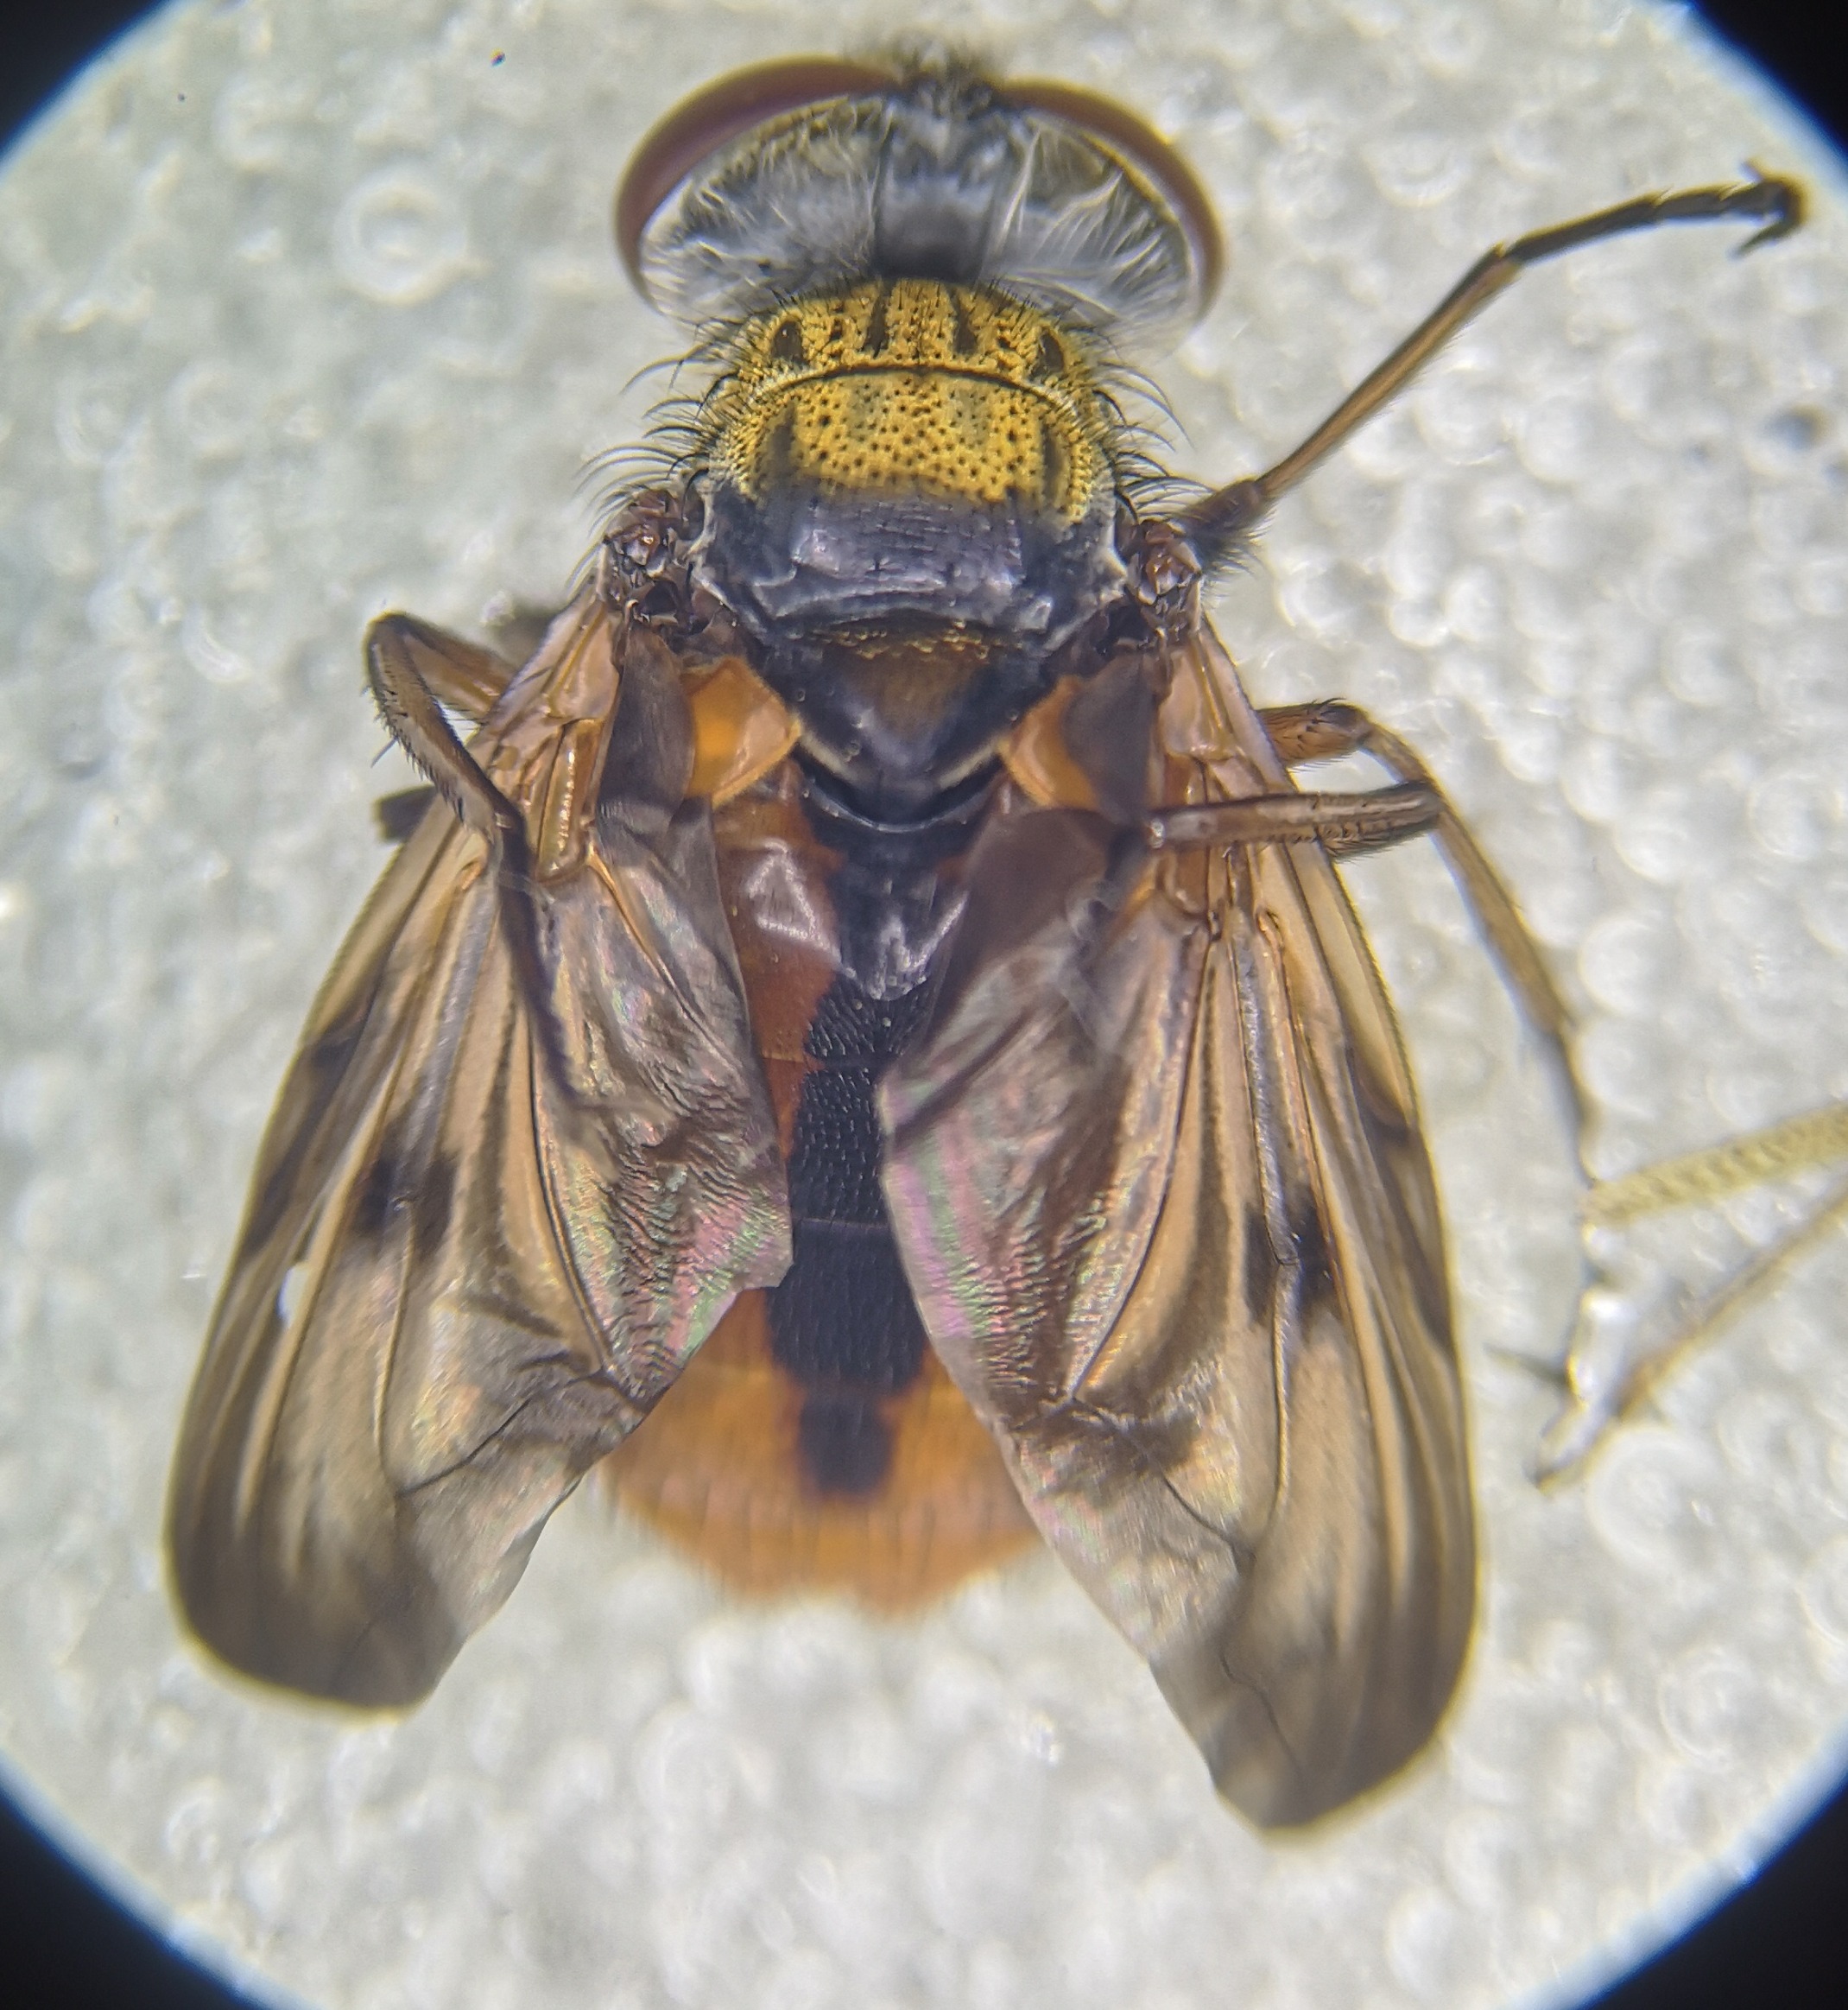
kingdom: Animalia
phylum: Arthropoda
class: Insecta
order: Diptera
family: Tachinidae
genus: Ectophasia
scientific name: Ectophasia crassipennis
